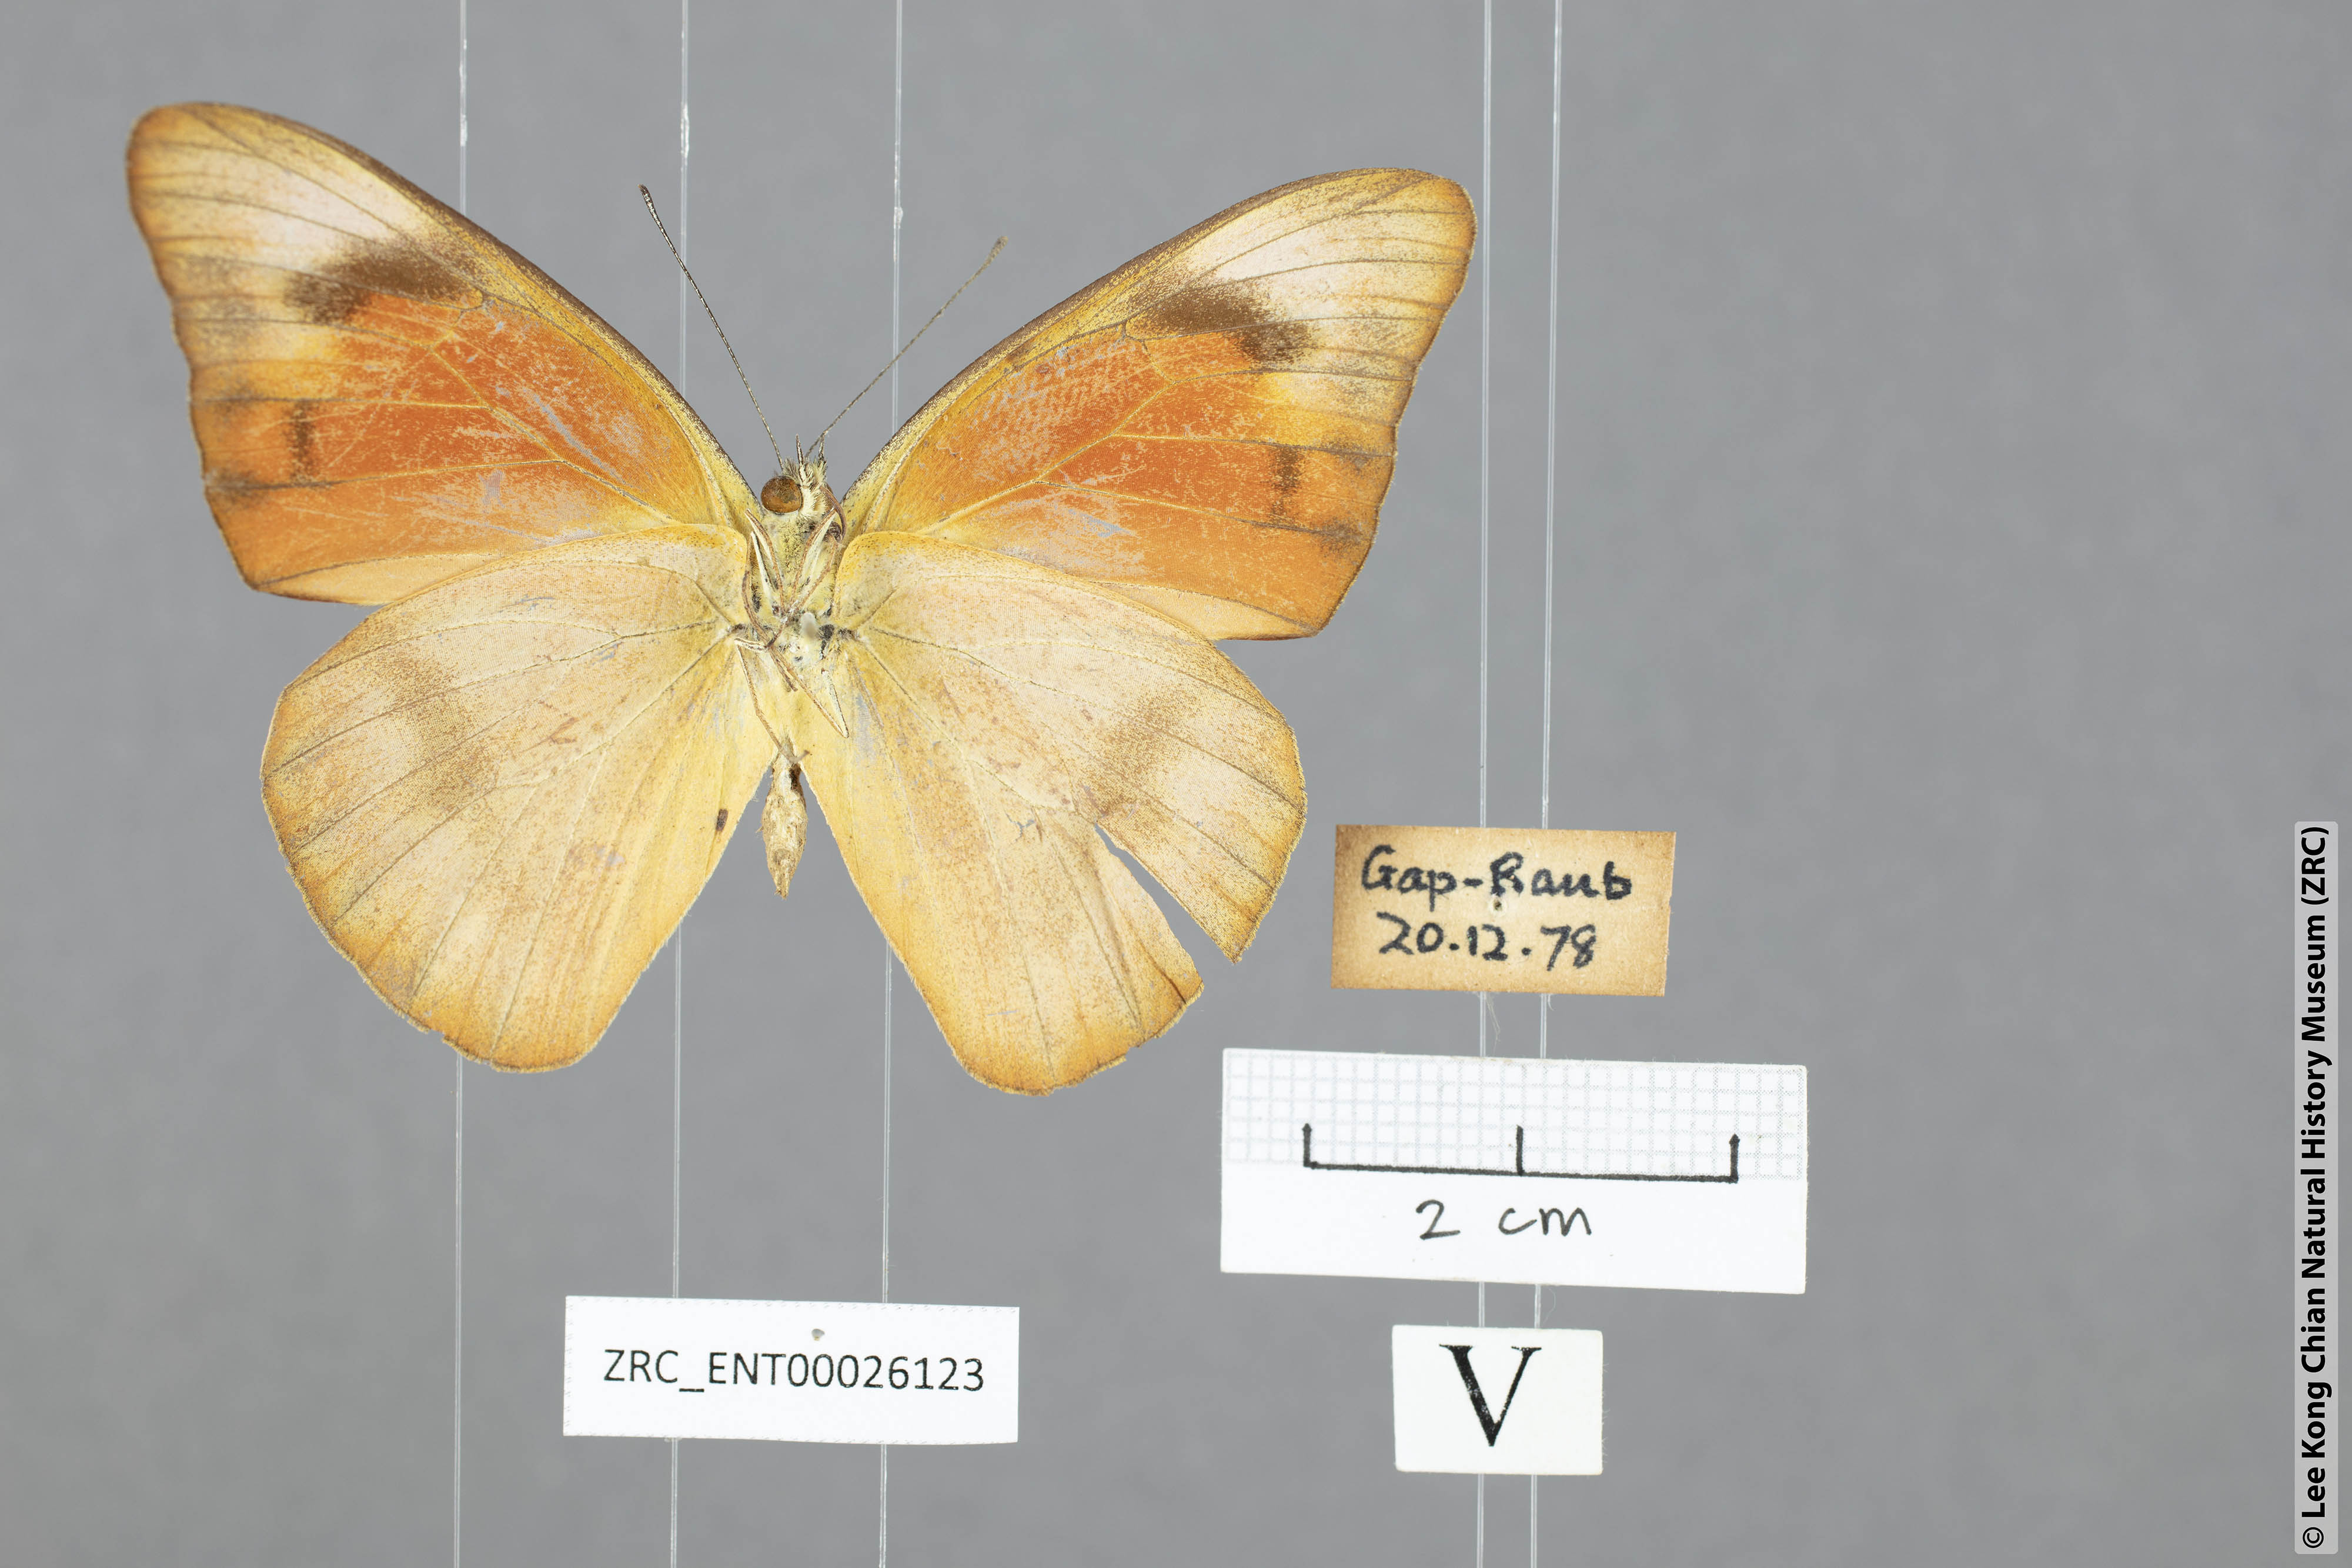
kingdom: Animalia
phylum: Arthropoda
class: Insecta
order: Lepidoptera
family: Pieridae
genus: Appias
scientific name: Appias nero
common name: Orange albatross
